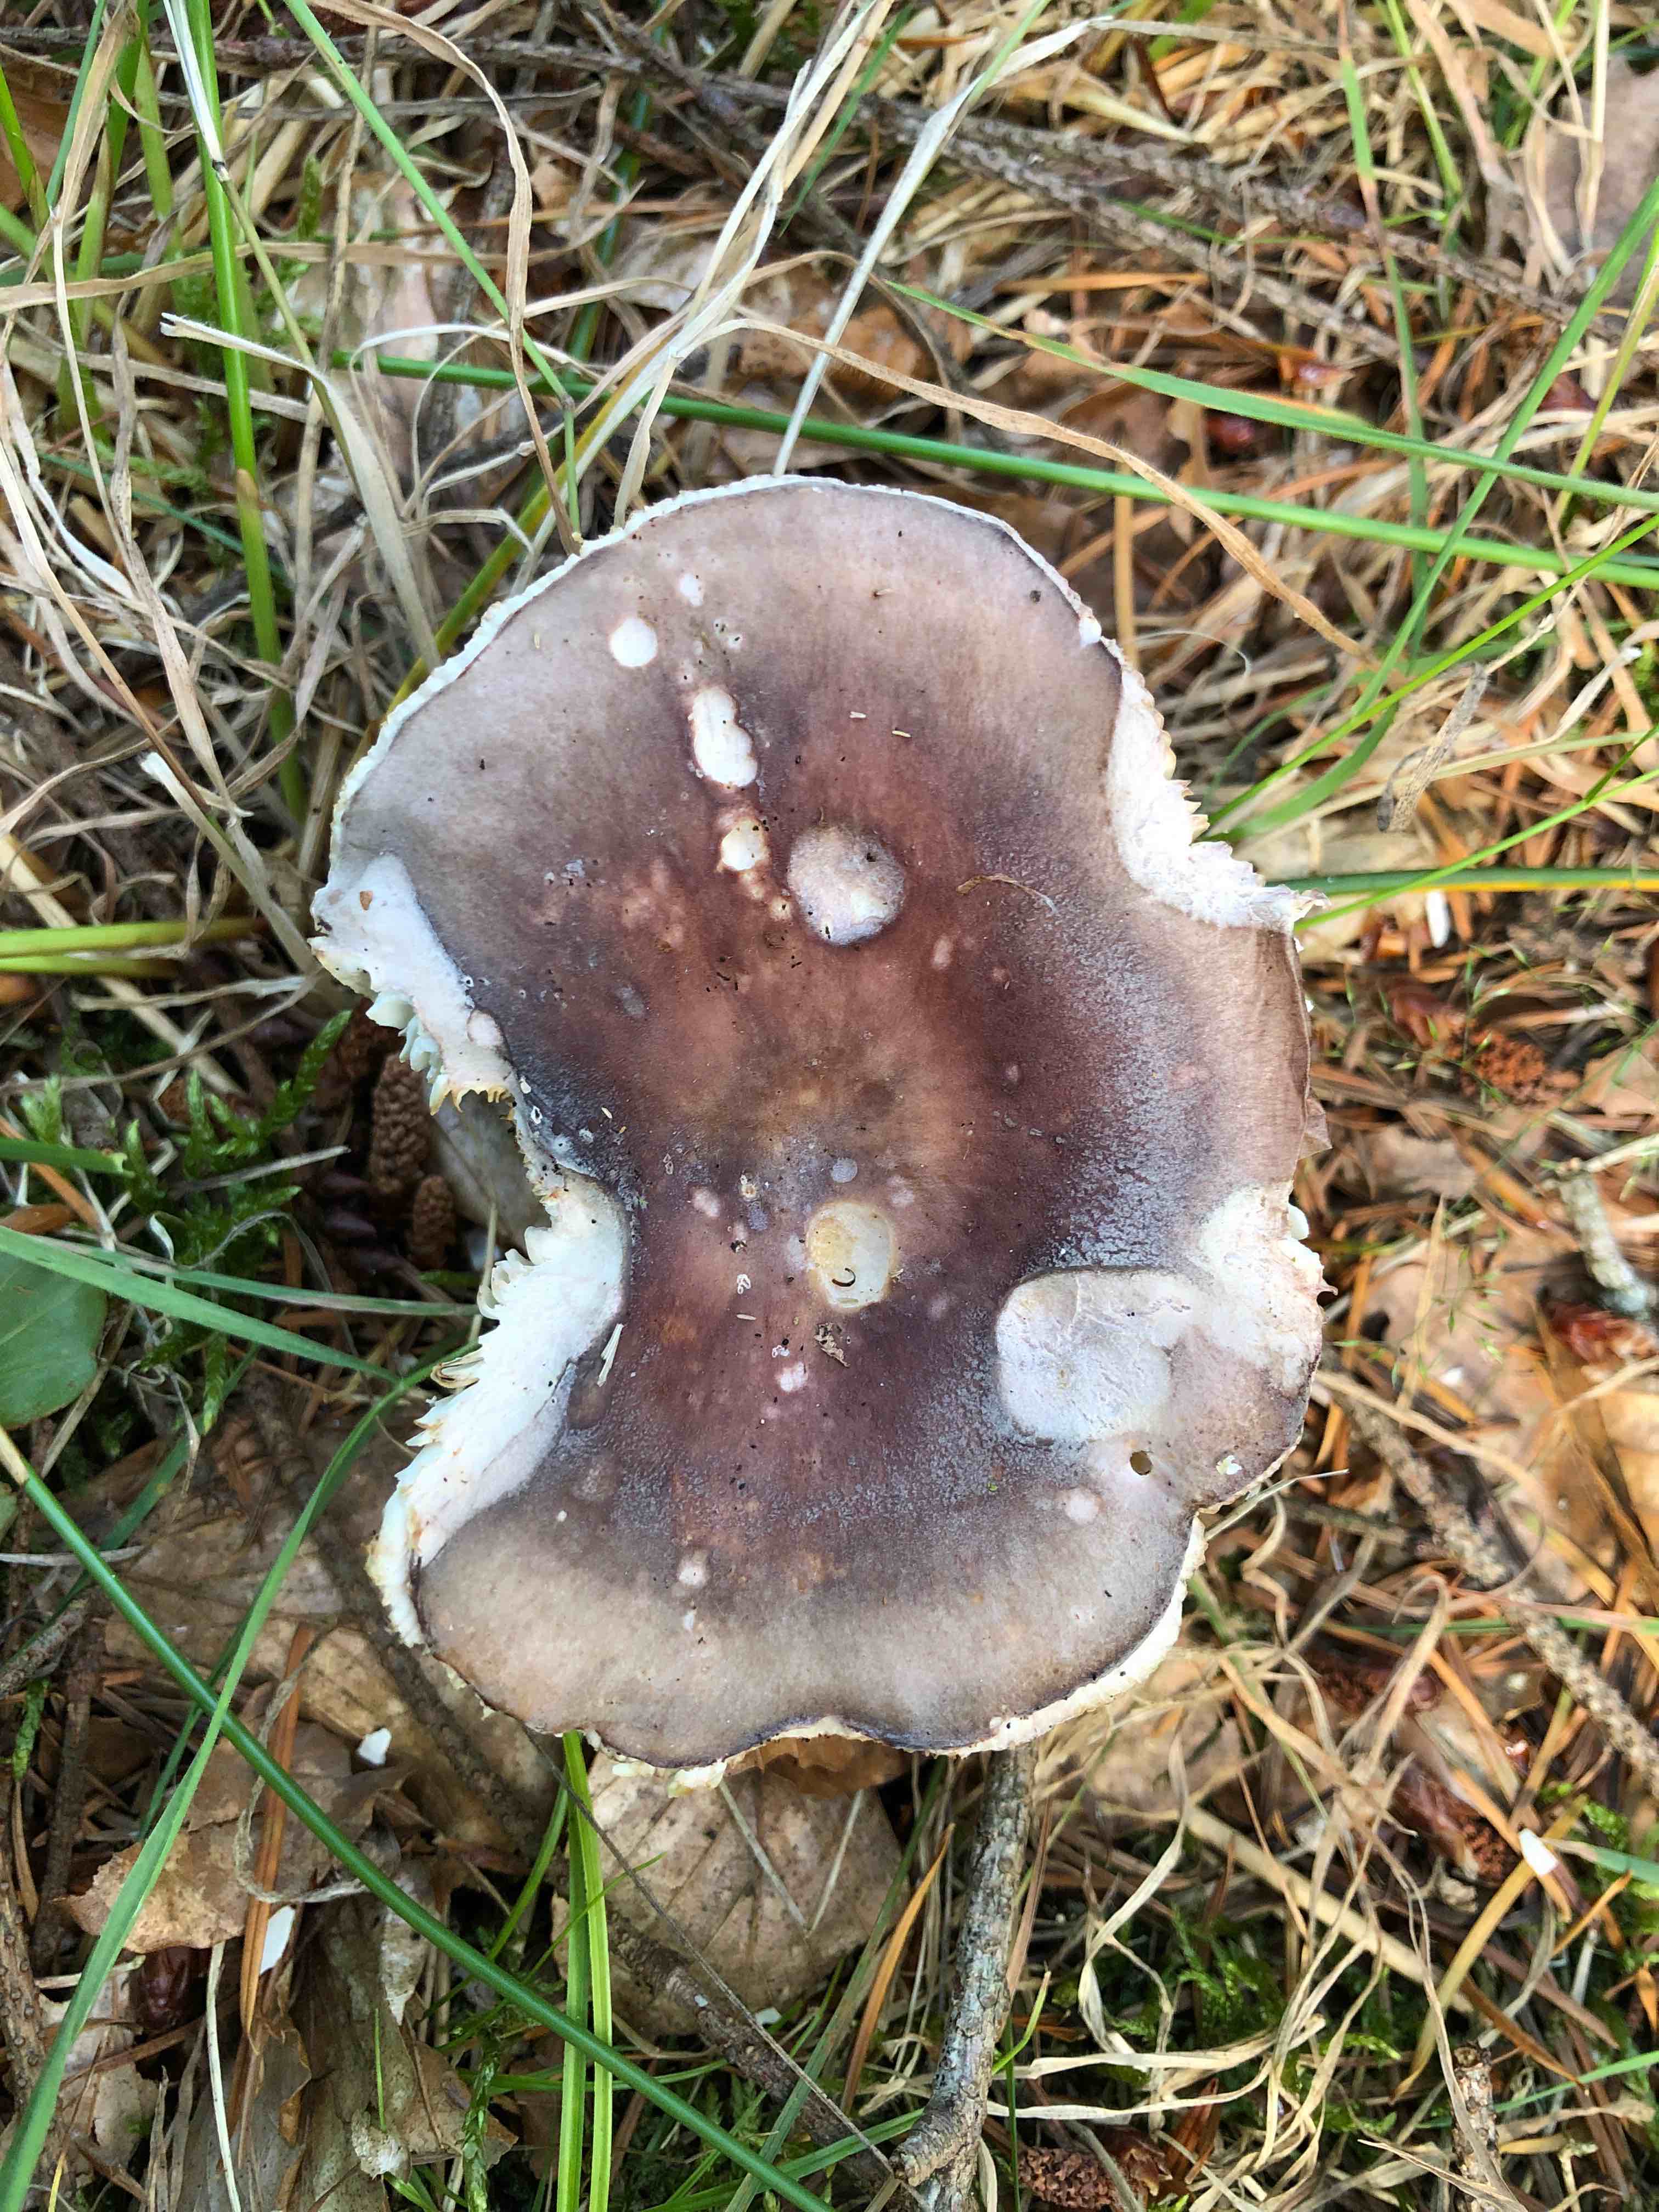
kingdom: Fungi
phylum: Basidiomycota
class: Agaricomycetes
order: Russulales
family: Russulaceae
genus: Russula
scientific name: Russula vesca
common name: spiselig skørhat
